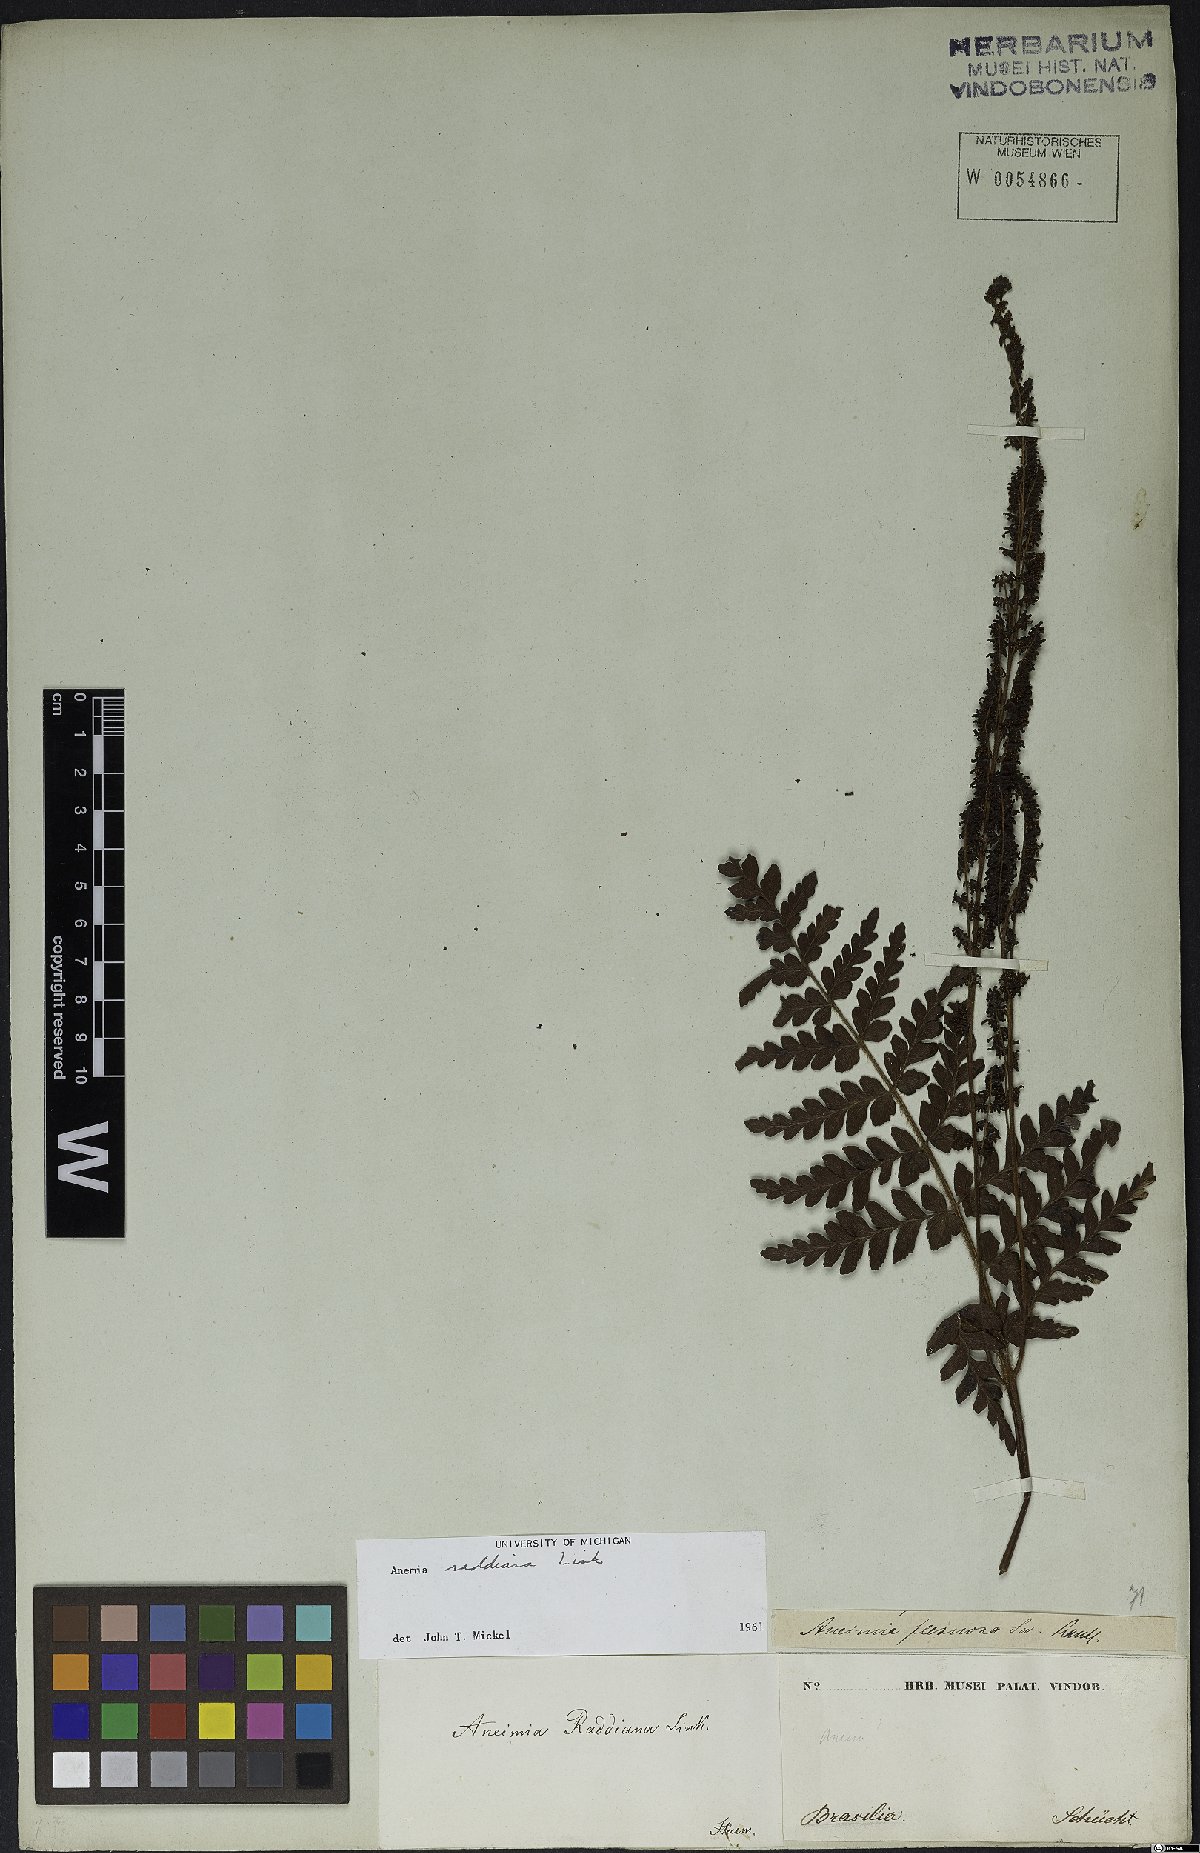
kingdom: Plantae
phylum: Tracheophyta
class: Polypodiopsida
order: Schizaeales
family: Anemiaceae
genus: Anemia
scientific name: Anemia raddiana
